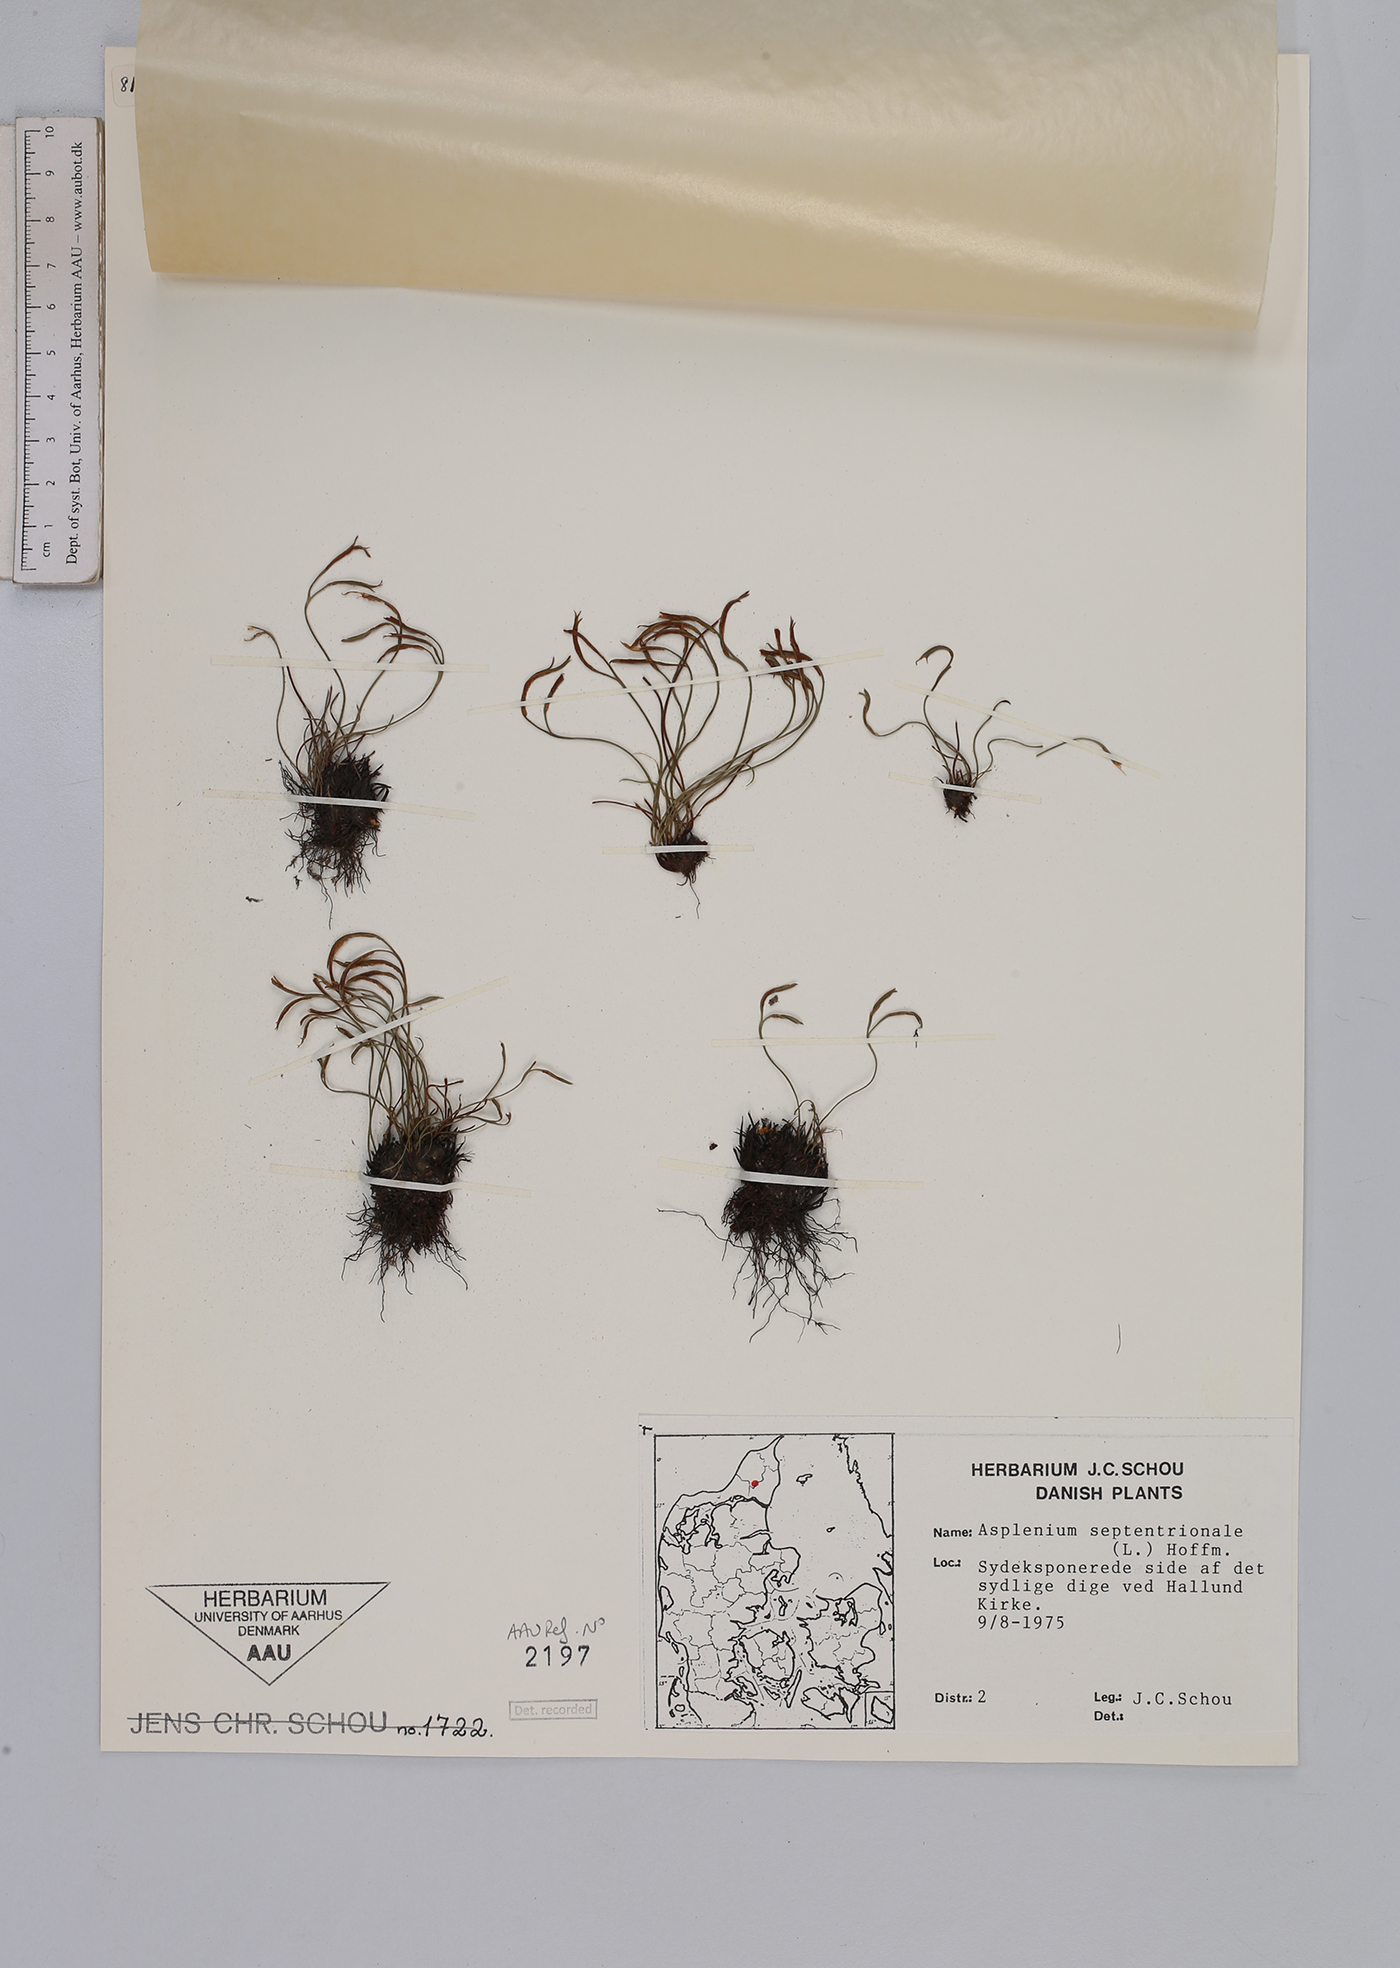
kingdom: Plantae
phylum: Tracheophyta
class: Polypodiopsida
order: Polypodiales
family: Aspleniaceae
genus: Asplenium
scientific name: Asplenium septentrionale
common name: Forked spleenwort
